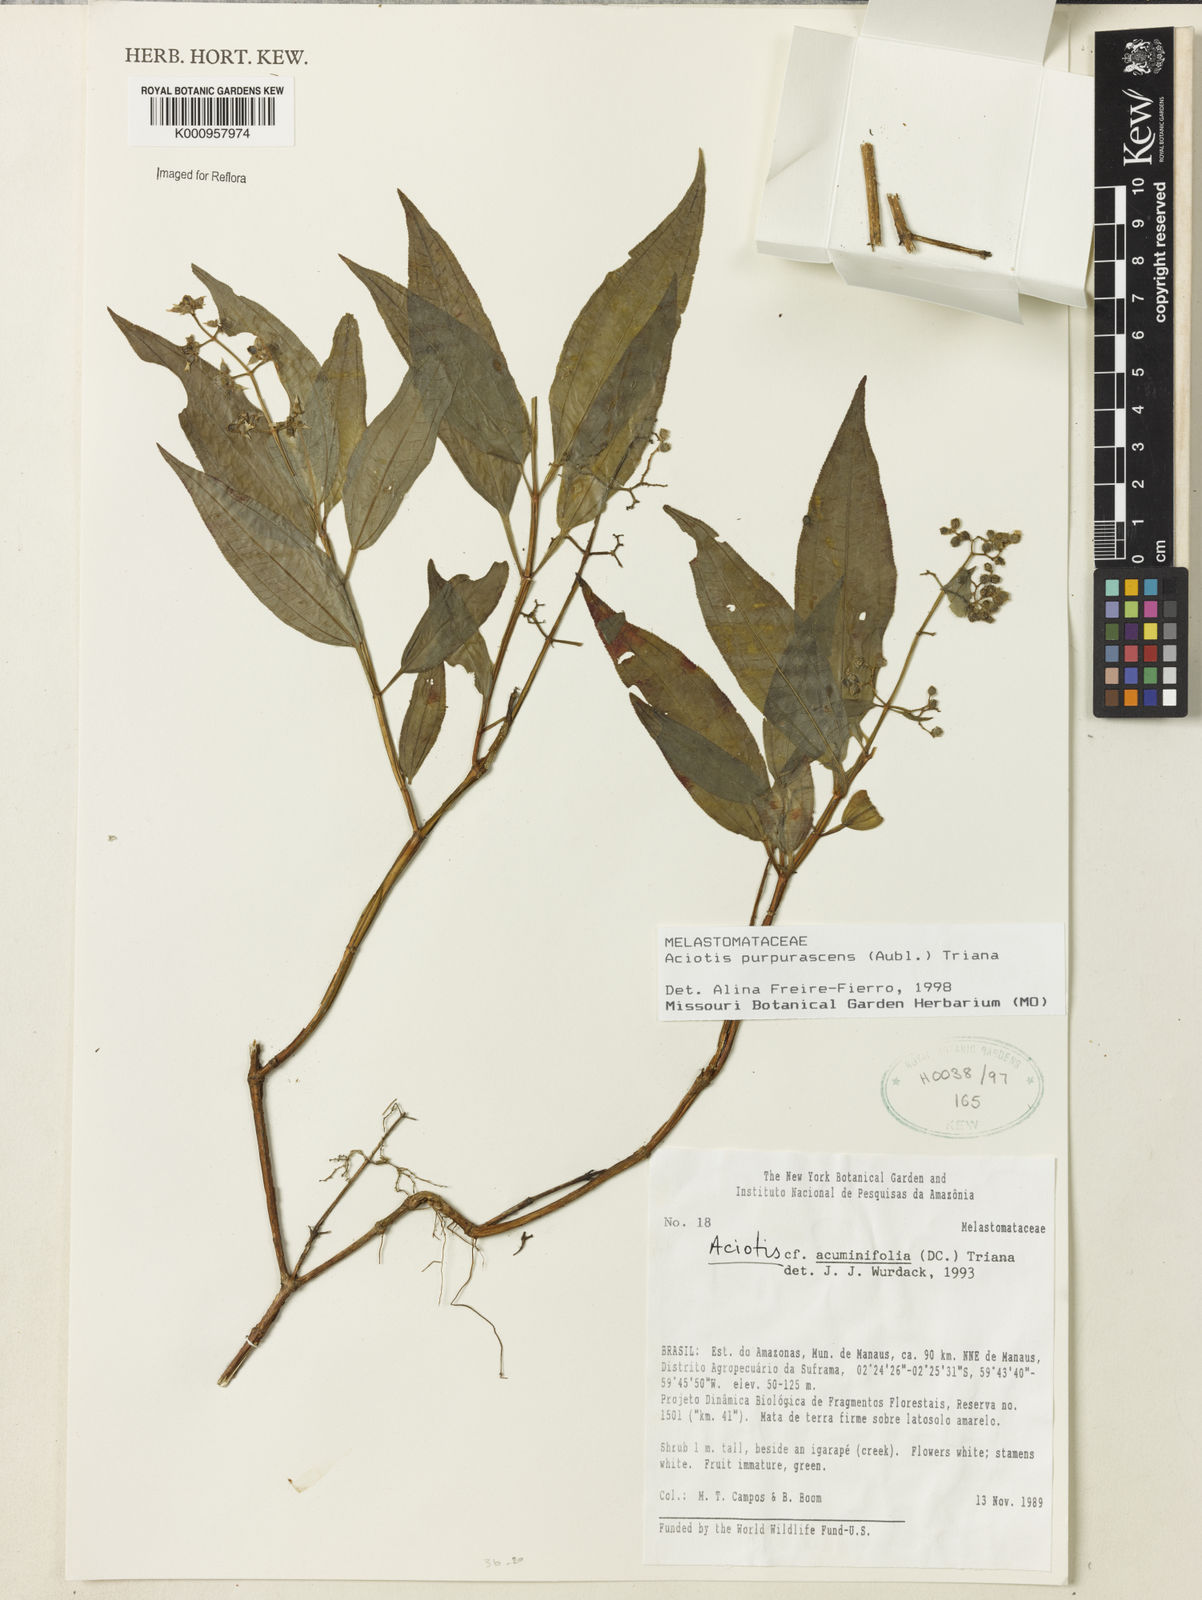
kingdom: Plantae
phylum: Tracheophyta
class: Magnoliopsida
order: Myrtales
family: Melastomataceae
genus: Aciotis
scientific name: Aciotis purpurascens
